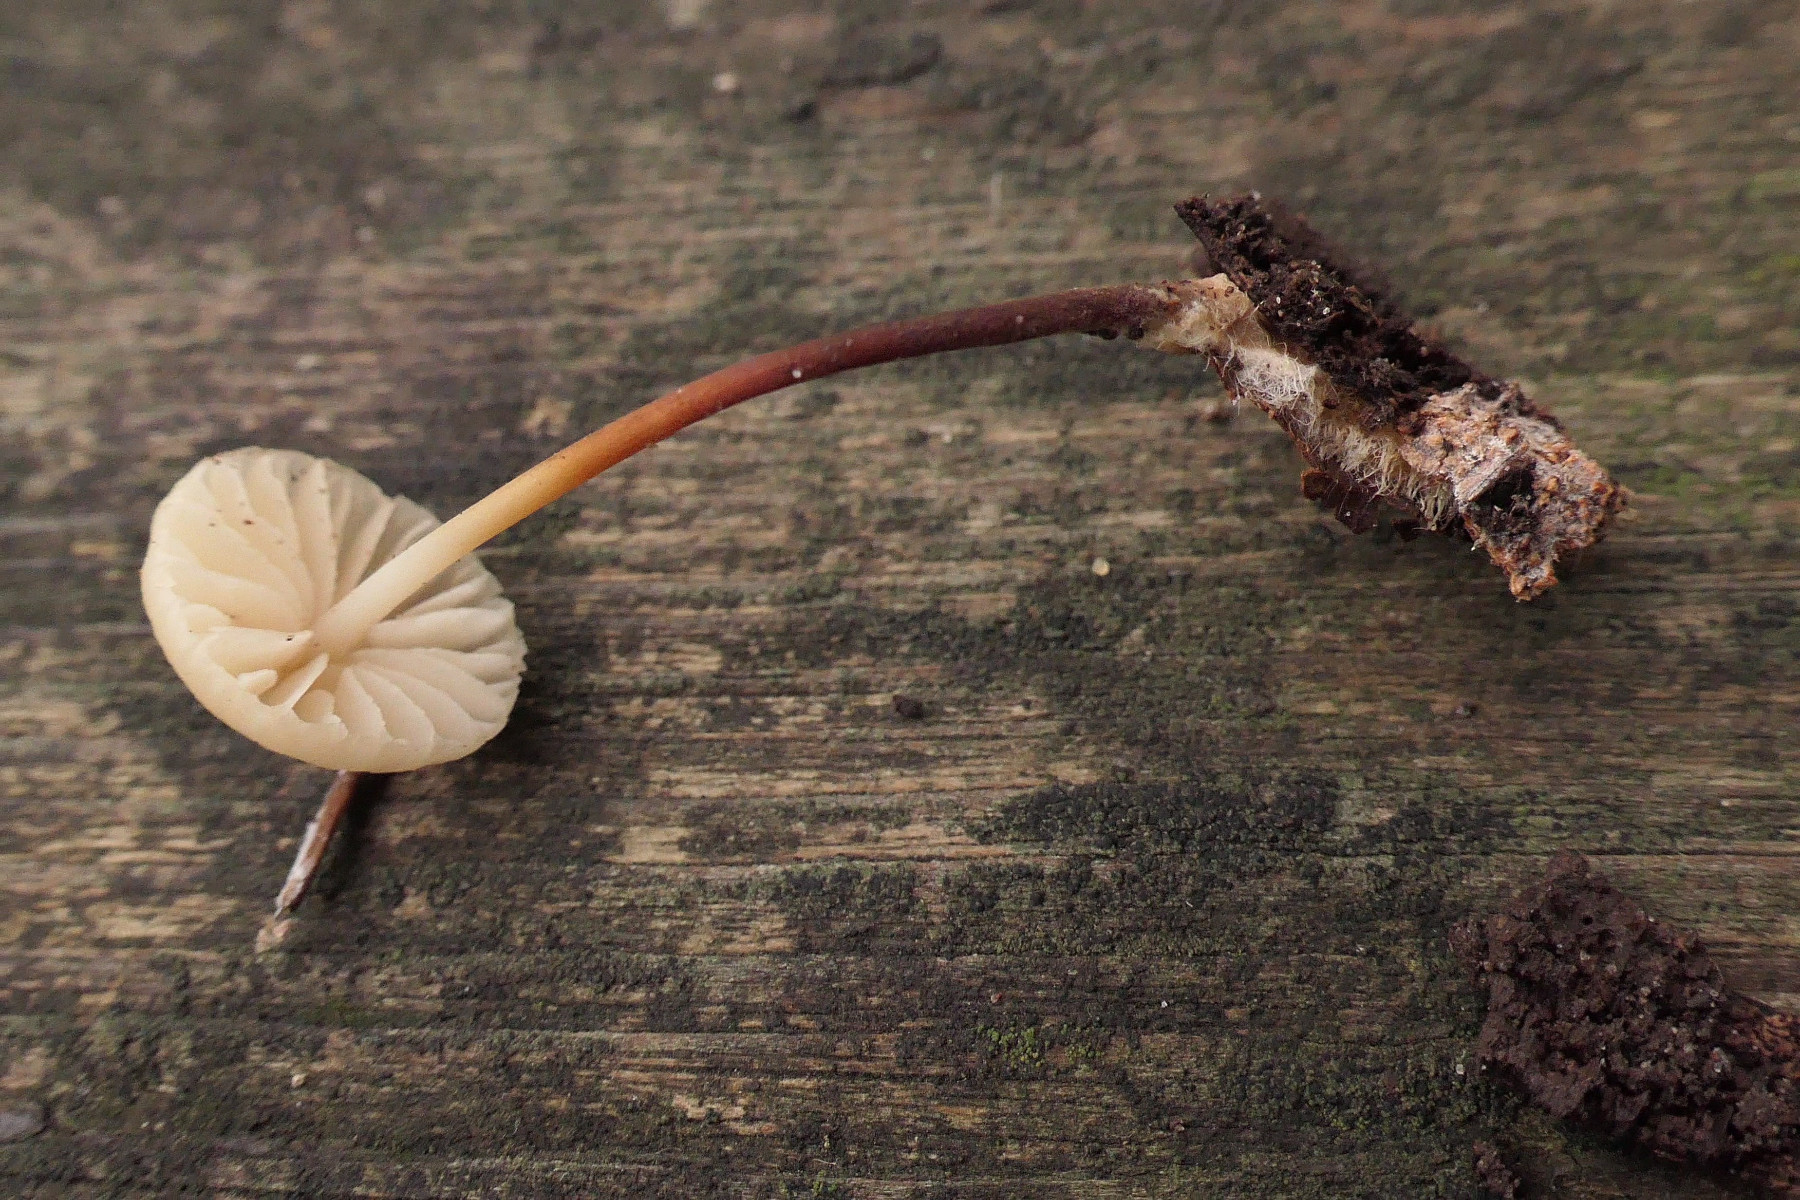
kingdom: Fungi
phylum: Basidiomycota
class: Agaricomycetes
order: Agaricales
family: Marasmiaceae
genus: Marasmius
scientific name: Marasmius torquescens
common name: filtfodet bruskhat
